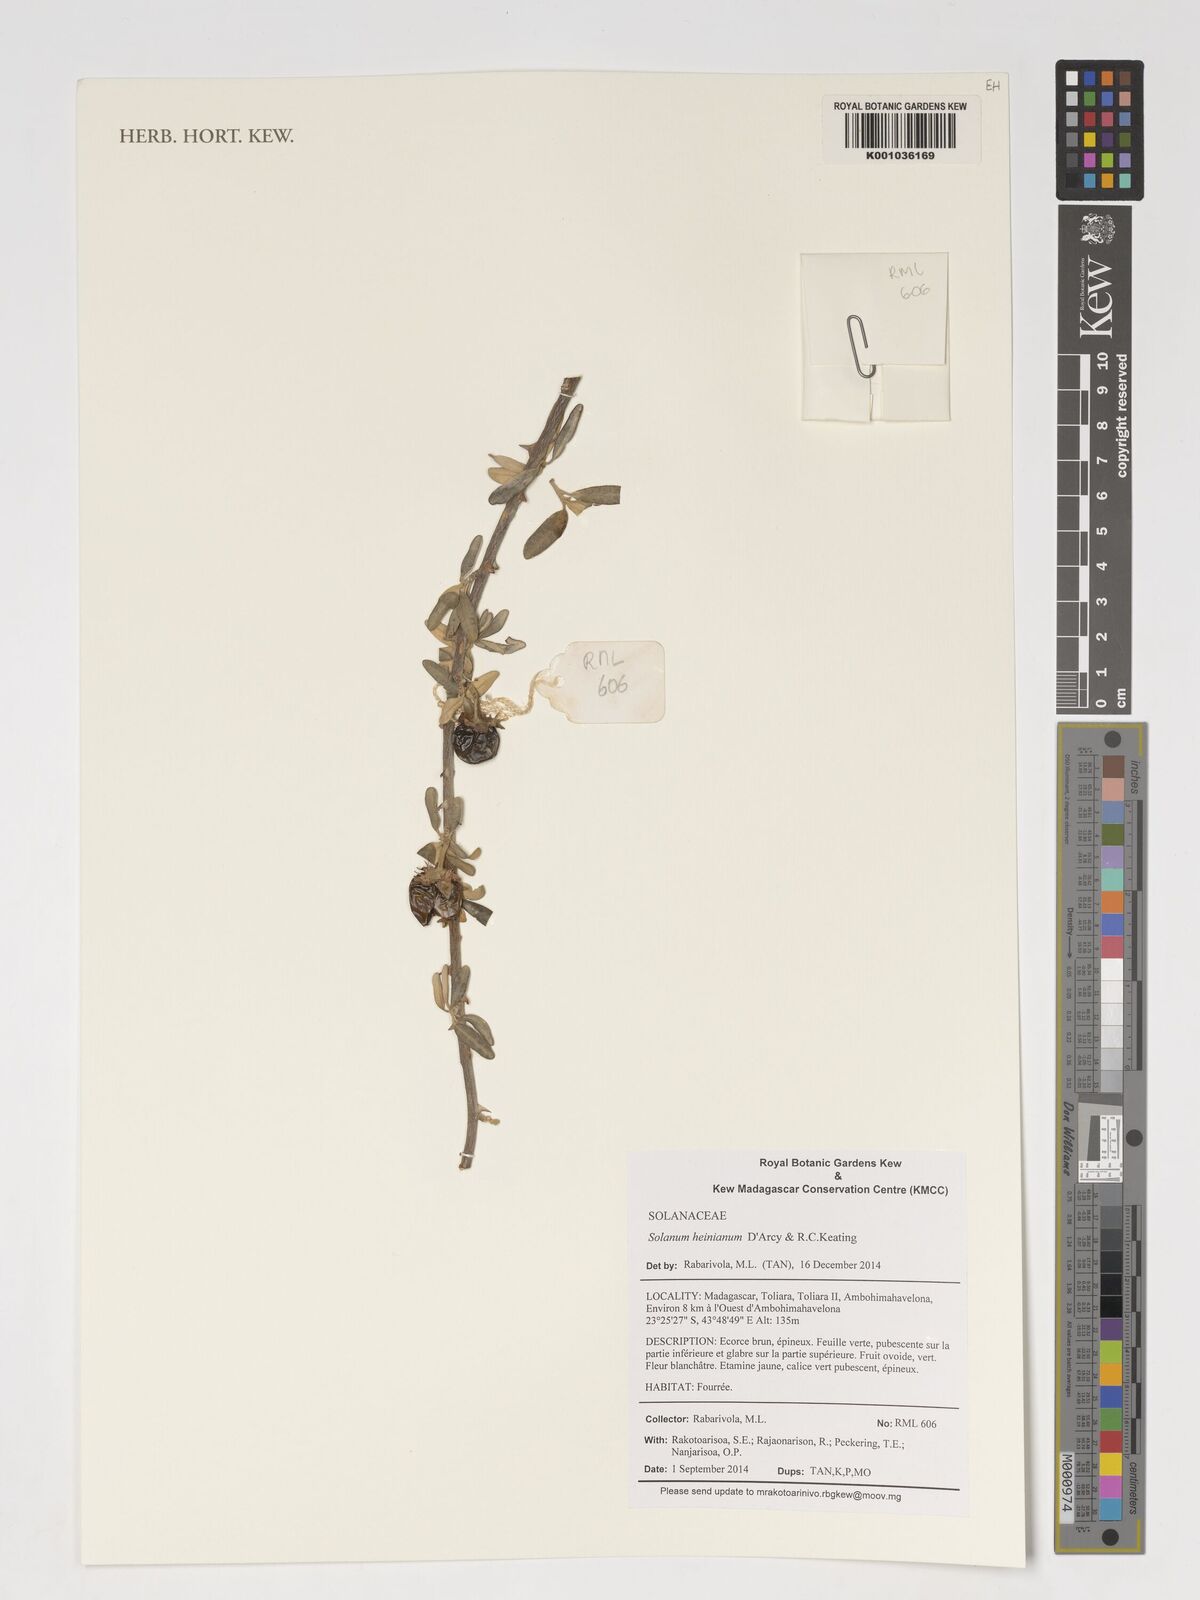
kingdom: Plantae
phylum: Tracheophyta
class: Magnoliopsida
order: Solanales
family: Solanaceae
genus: Solanum
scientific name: Solanum heinianum
